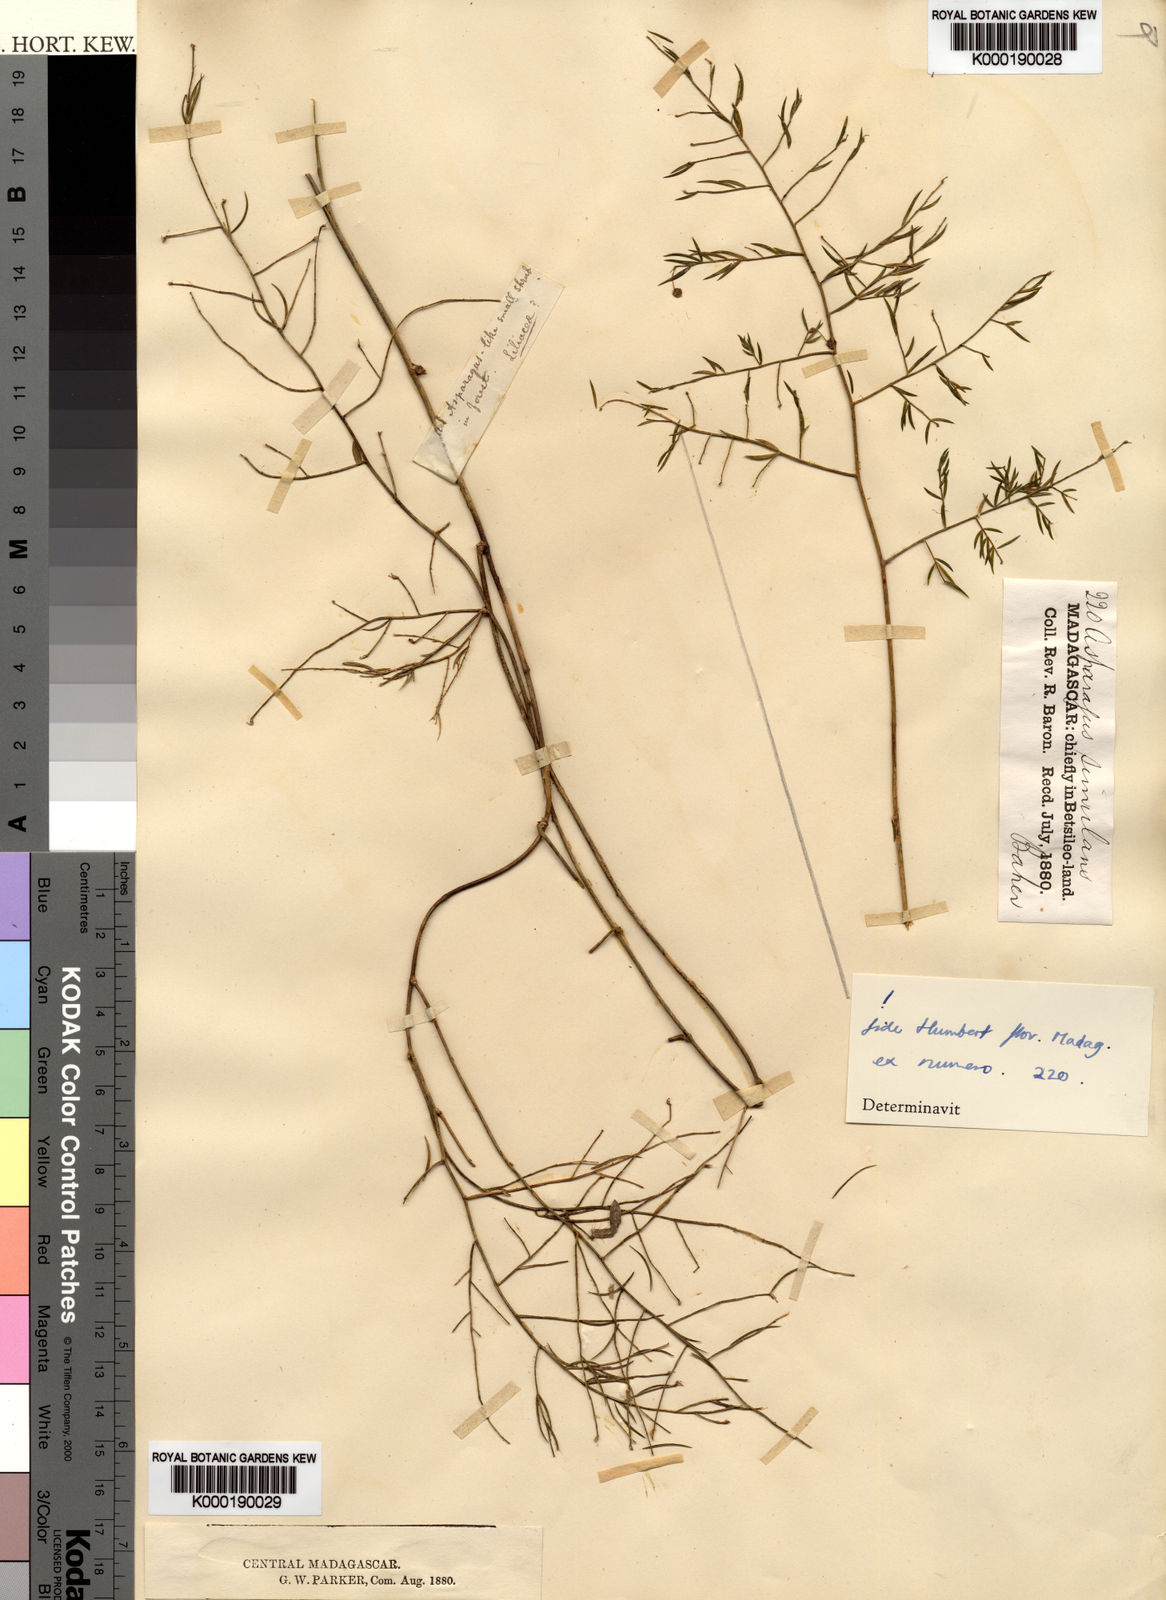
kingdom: Plantae
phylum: Tracheophyta
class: Liliopsida
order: Asparagales
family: Asparagaceae
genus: Asparagus
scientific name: Asparagus simulans
